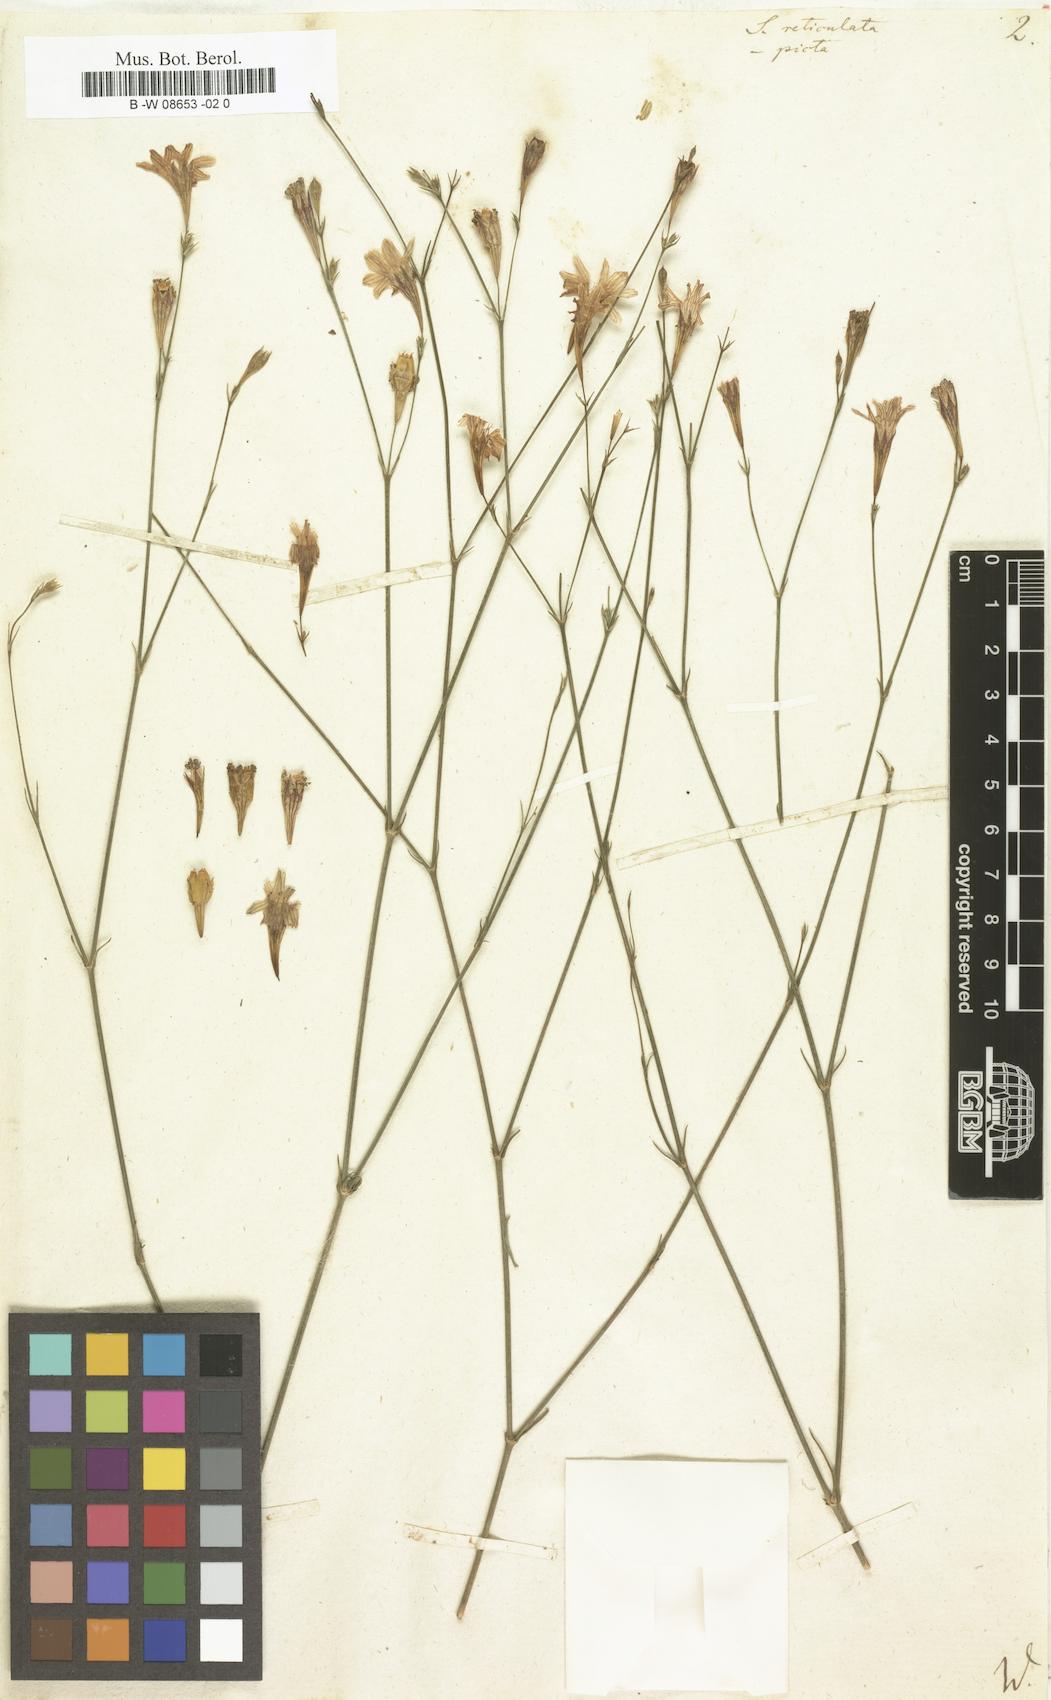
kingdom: Plantae
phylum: Tracheophyta
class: Magnoliopsida
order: Caryophyllales
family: Caryophyllaceae
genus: Silene
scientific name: Silene reticulata
